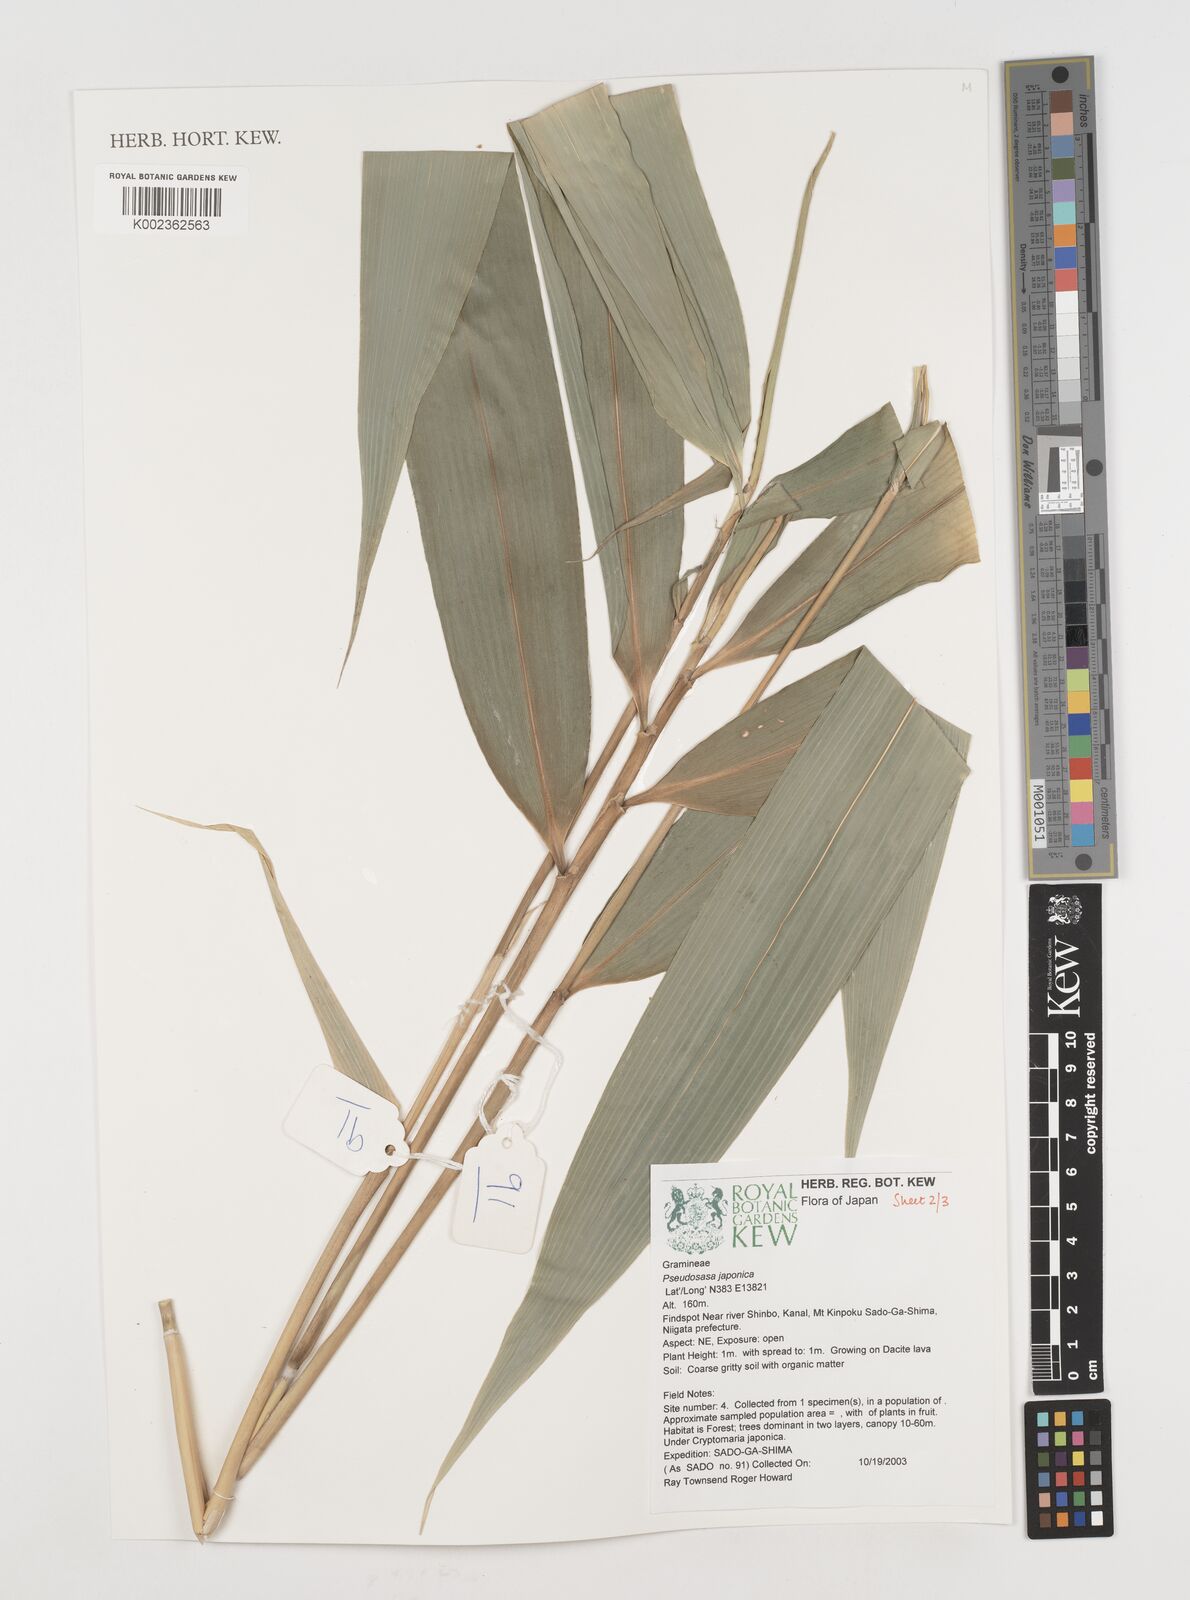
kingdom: Plantae
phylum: Tracheophyta
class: Liliopsida
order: Poales
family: Poaceae
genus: Pseudosasa
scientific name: Pseudosasa japonica
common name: Arrow bamboo
